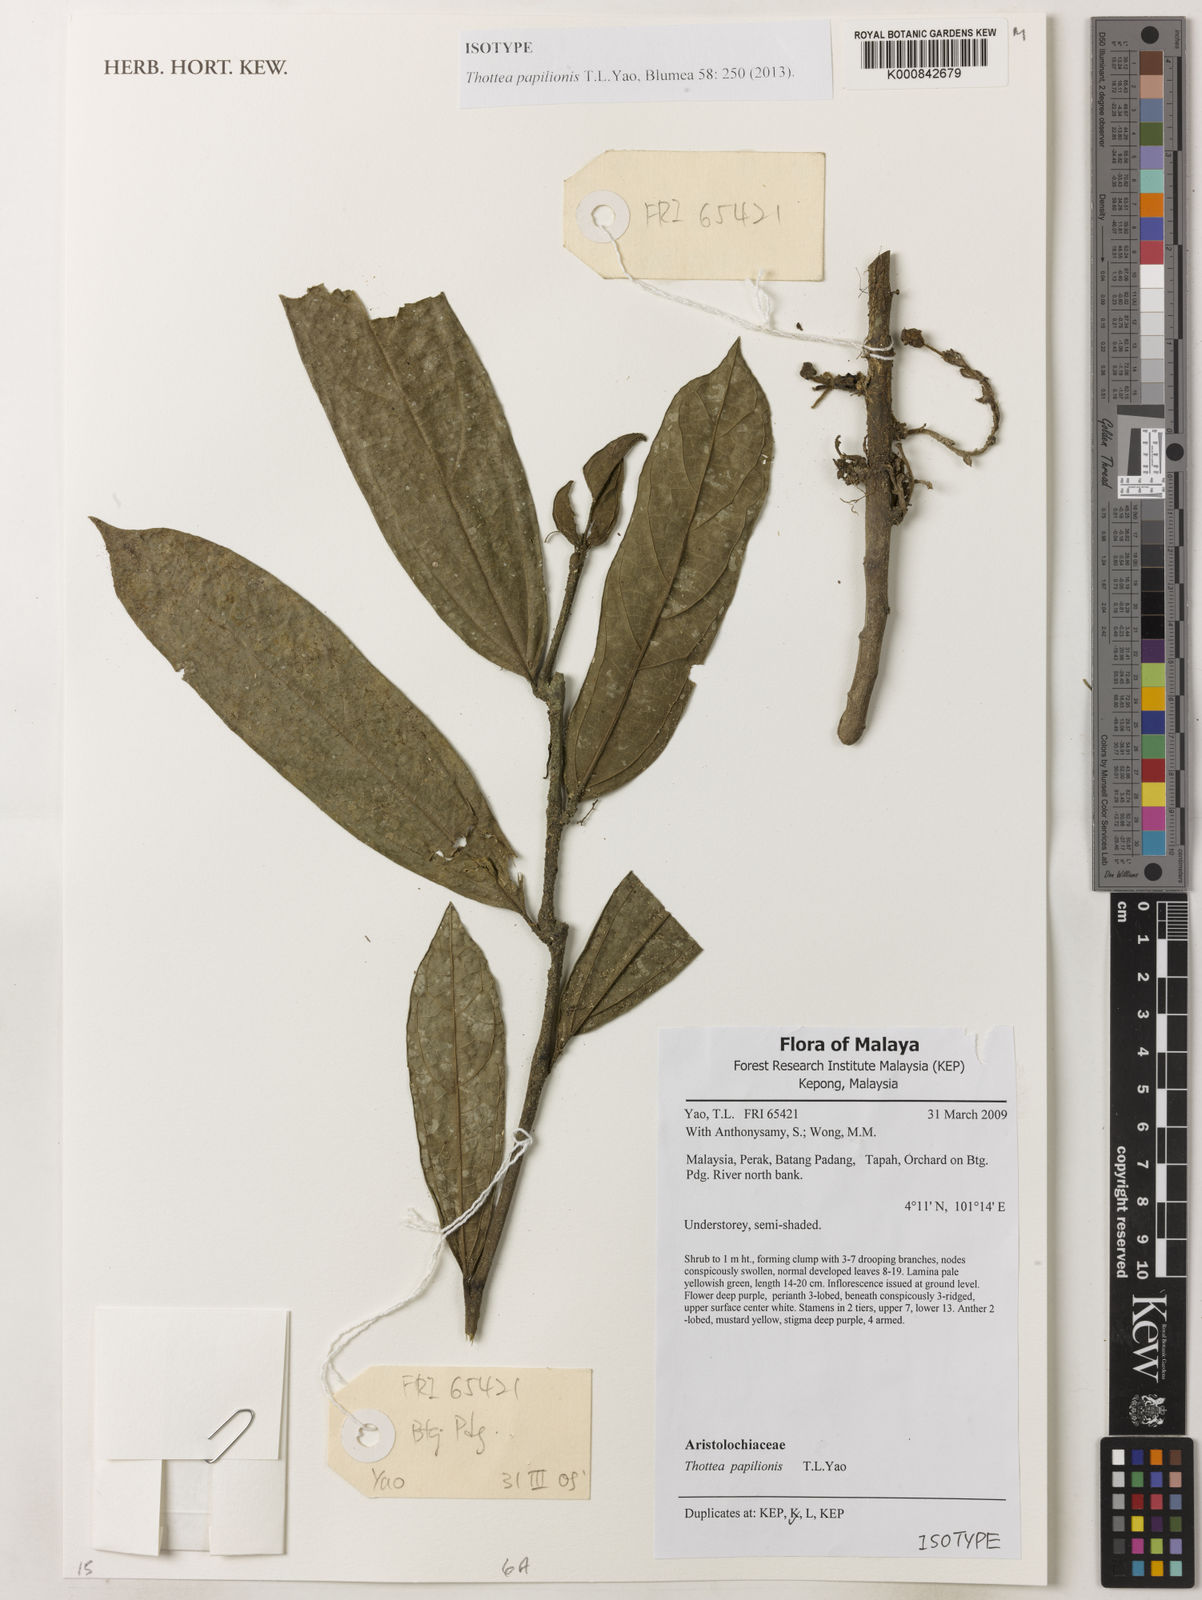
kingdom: Plantae
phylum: Tracheophyta
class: Magnoliopsida
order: Piperales
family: Aristolochiaceae
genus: Thottea
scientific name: Thottea papilionis
